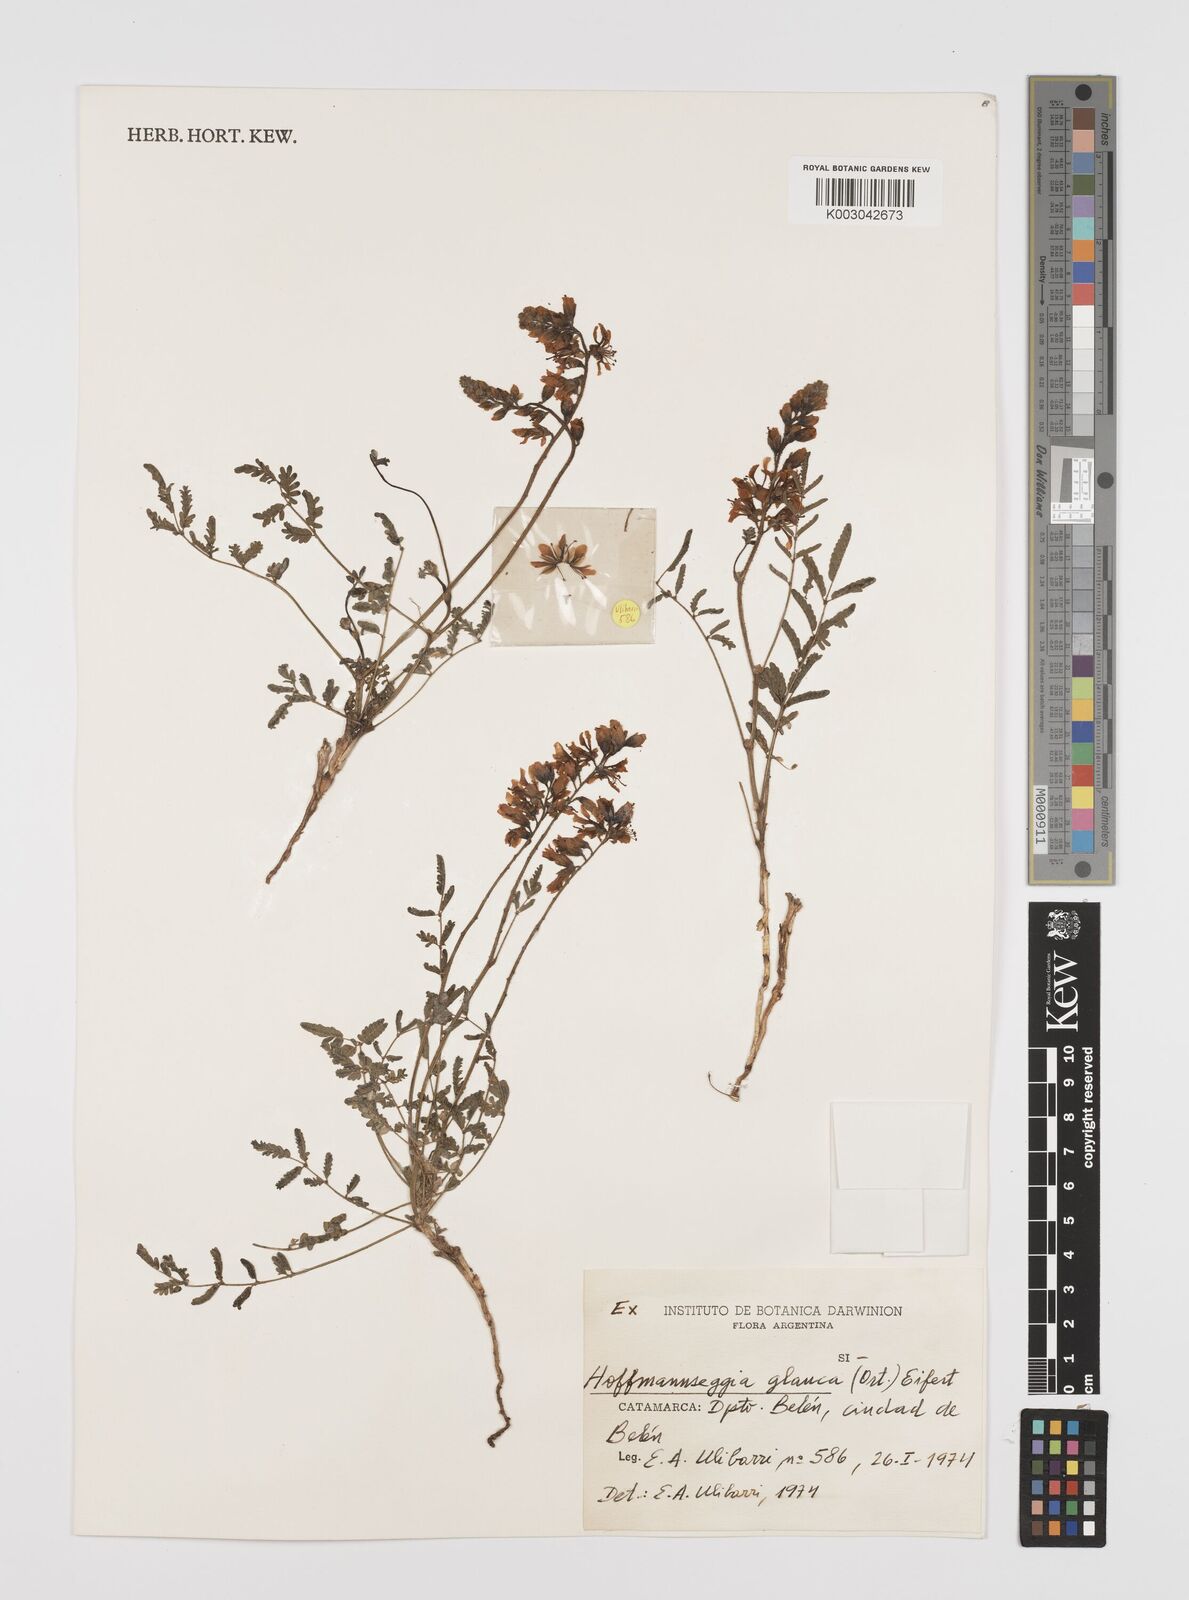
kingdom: Plantae
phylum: Tracheophyta
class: Magnoliopsida
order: Fabales
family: Fabaceae
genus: Hoffmannseggia
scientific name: Hoffmannseggia glauca
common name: Pignut
